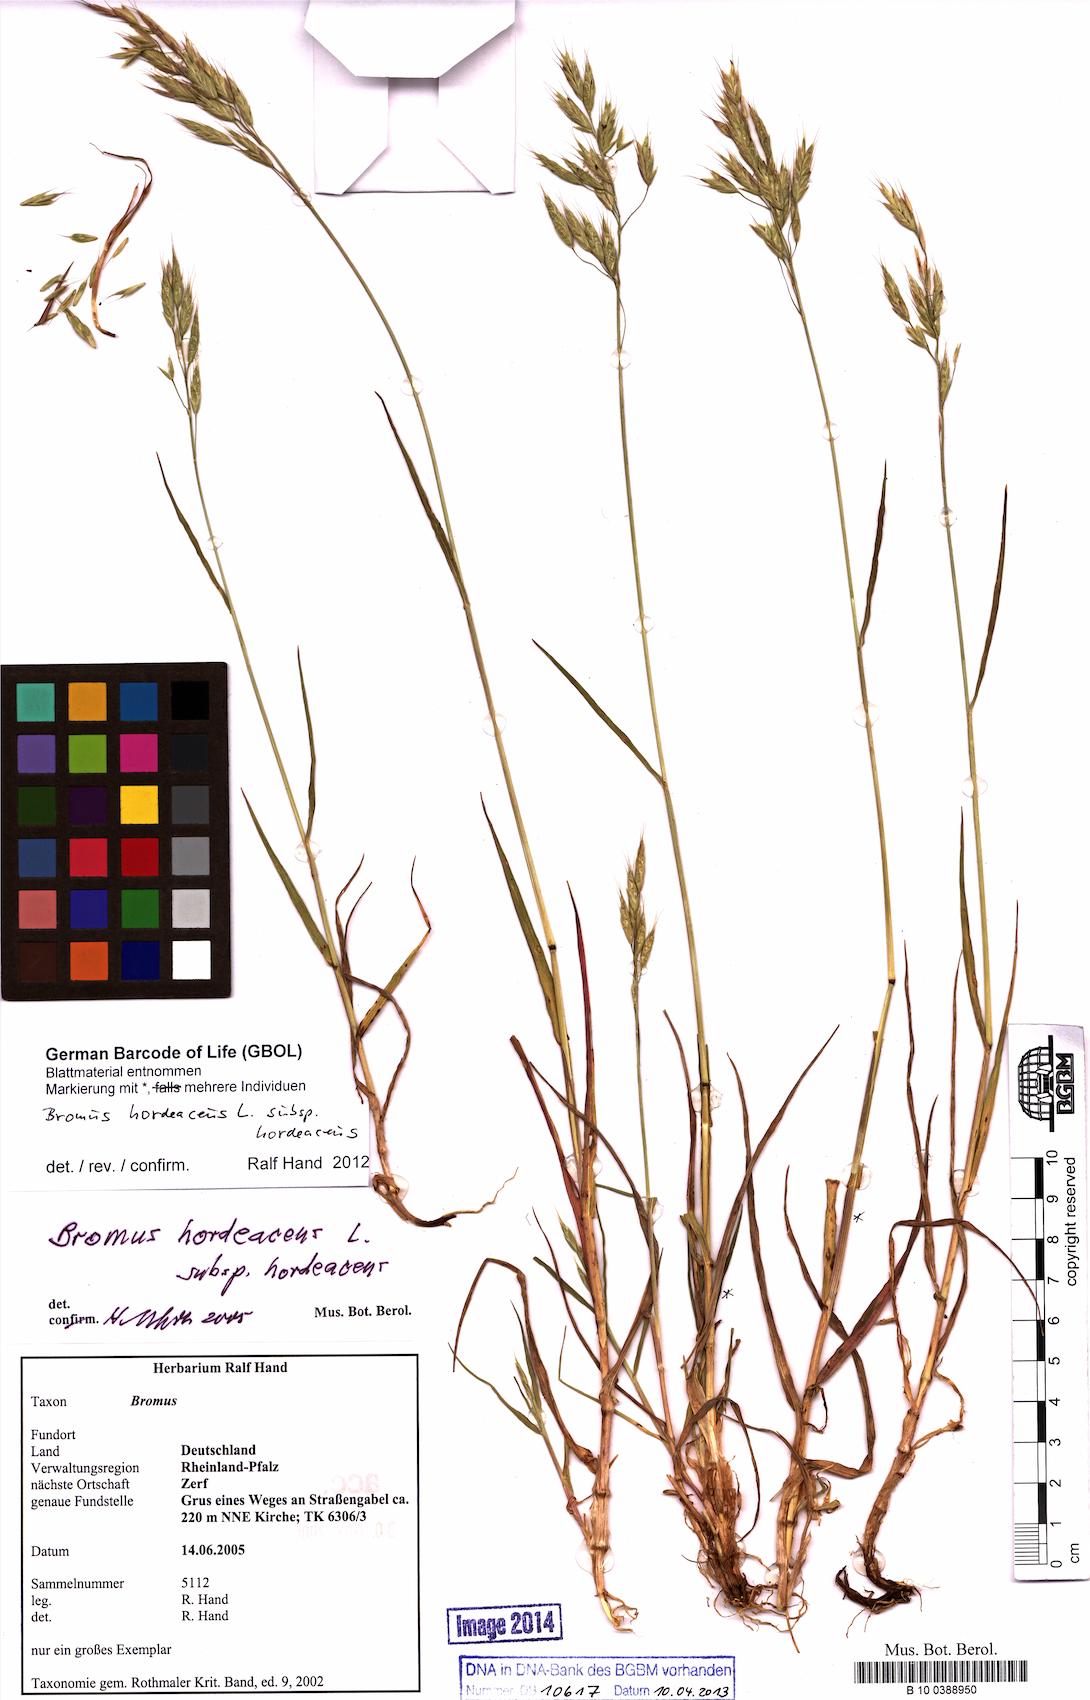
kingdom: Plantae
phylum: Tracheophyta
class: Liliopsida
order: Poales
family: Poaceae
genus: Bromus
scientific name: Bromus hordeaceus
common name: Soft brome
